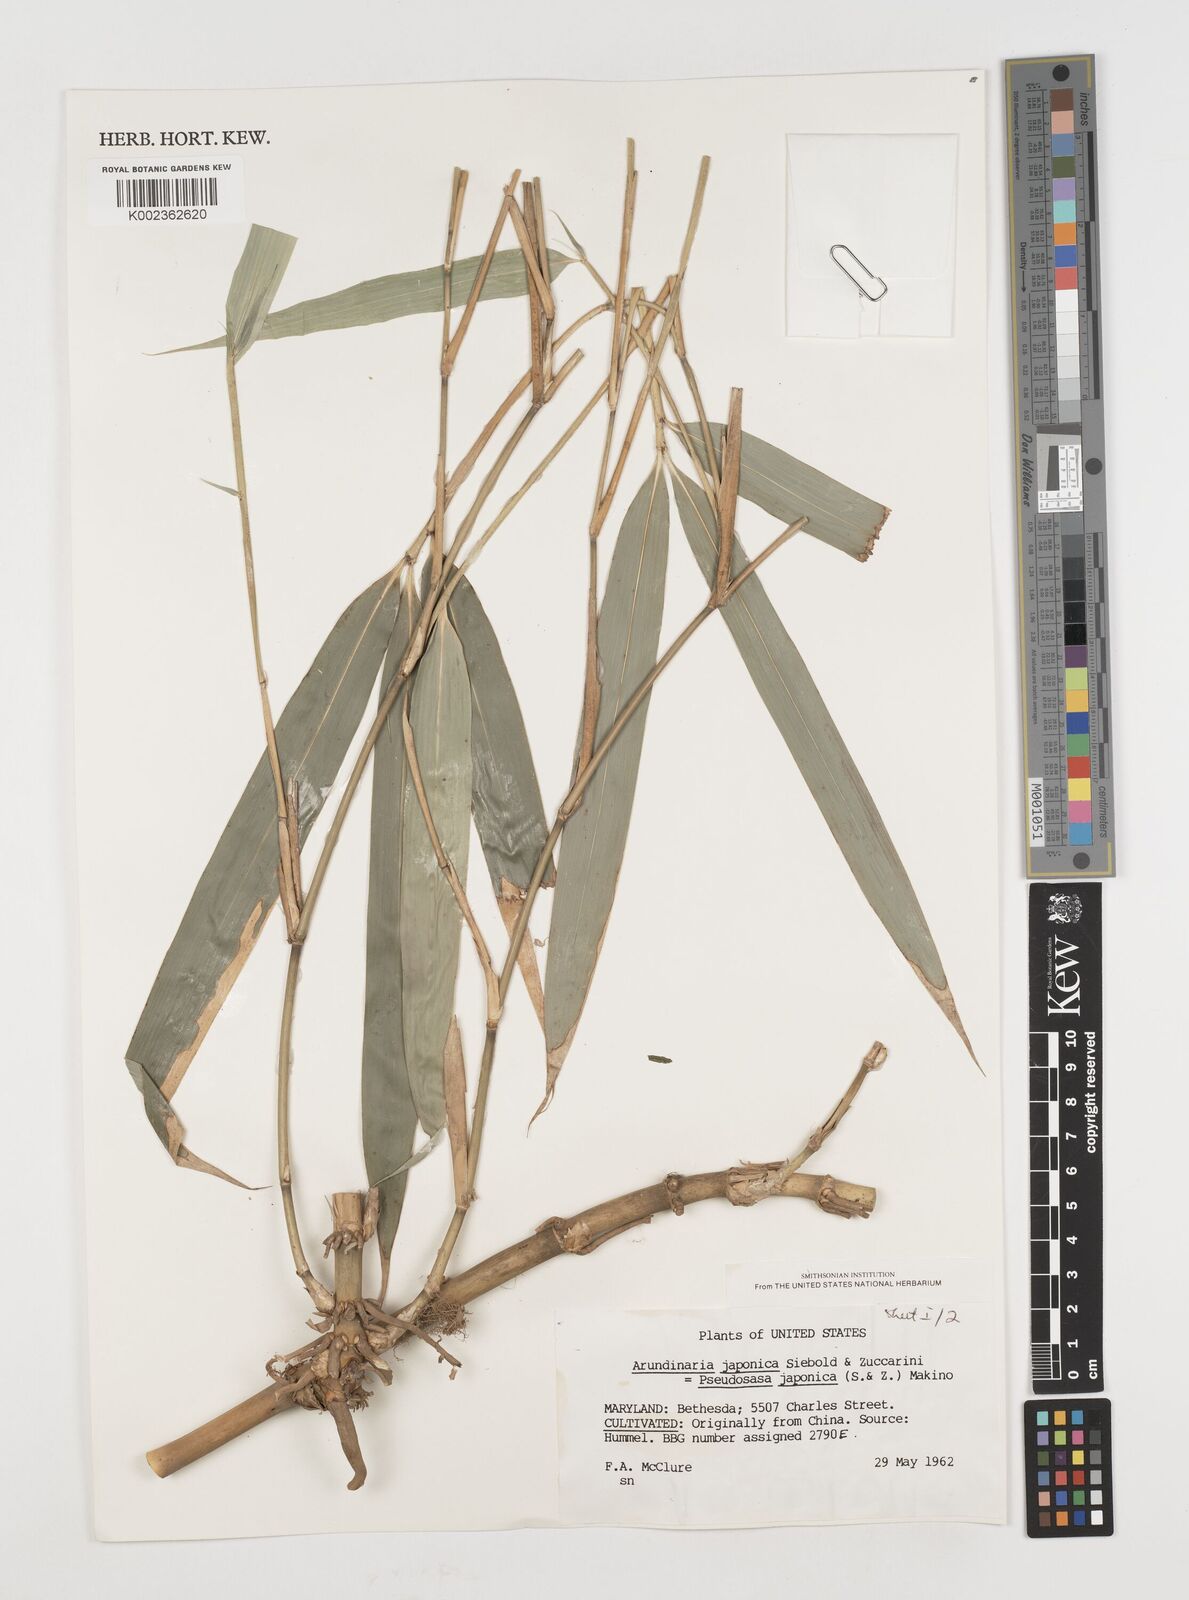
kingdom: Plantae
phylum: Tracheophyta
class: Liliopsida
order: Poales
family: Poaceae
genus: Pseudosasa
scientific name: Pseudosasa japonica
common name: Arrow bamboo
